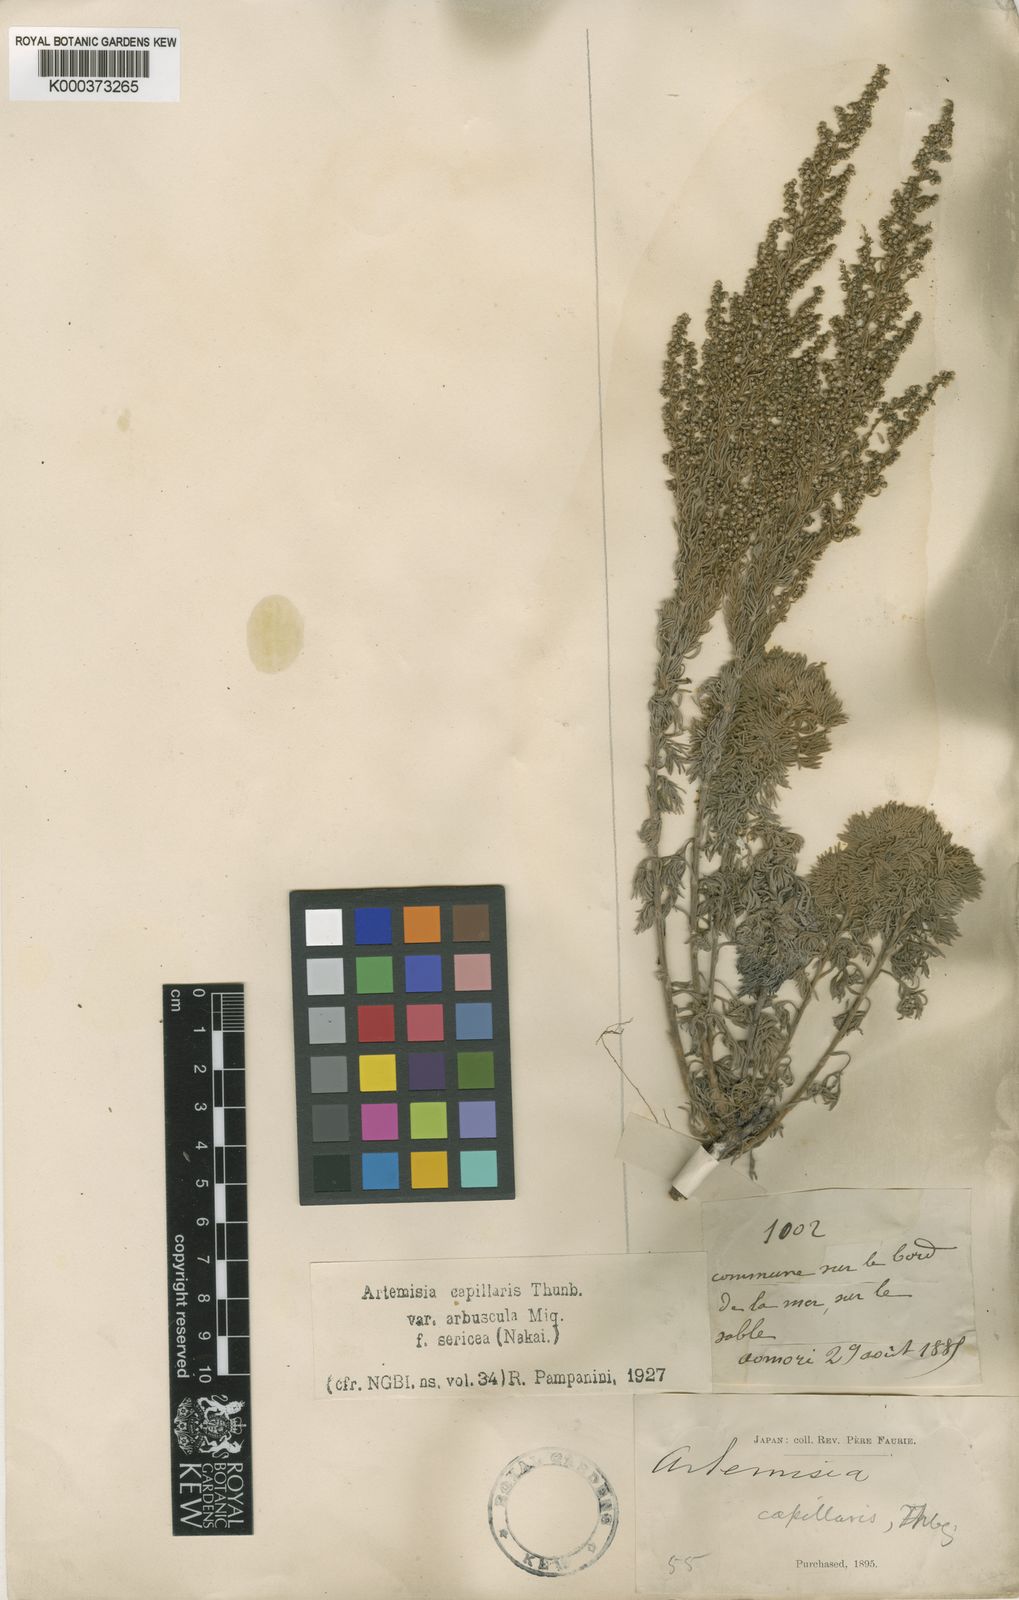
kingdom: Plantae
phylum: Tracheophyta
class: Magnoliopsida
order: Asterales
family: Asteraceae
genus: Artemisia
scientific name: Artemisia capillaris
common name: Yin-chen wormwood
